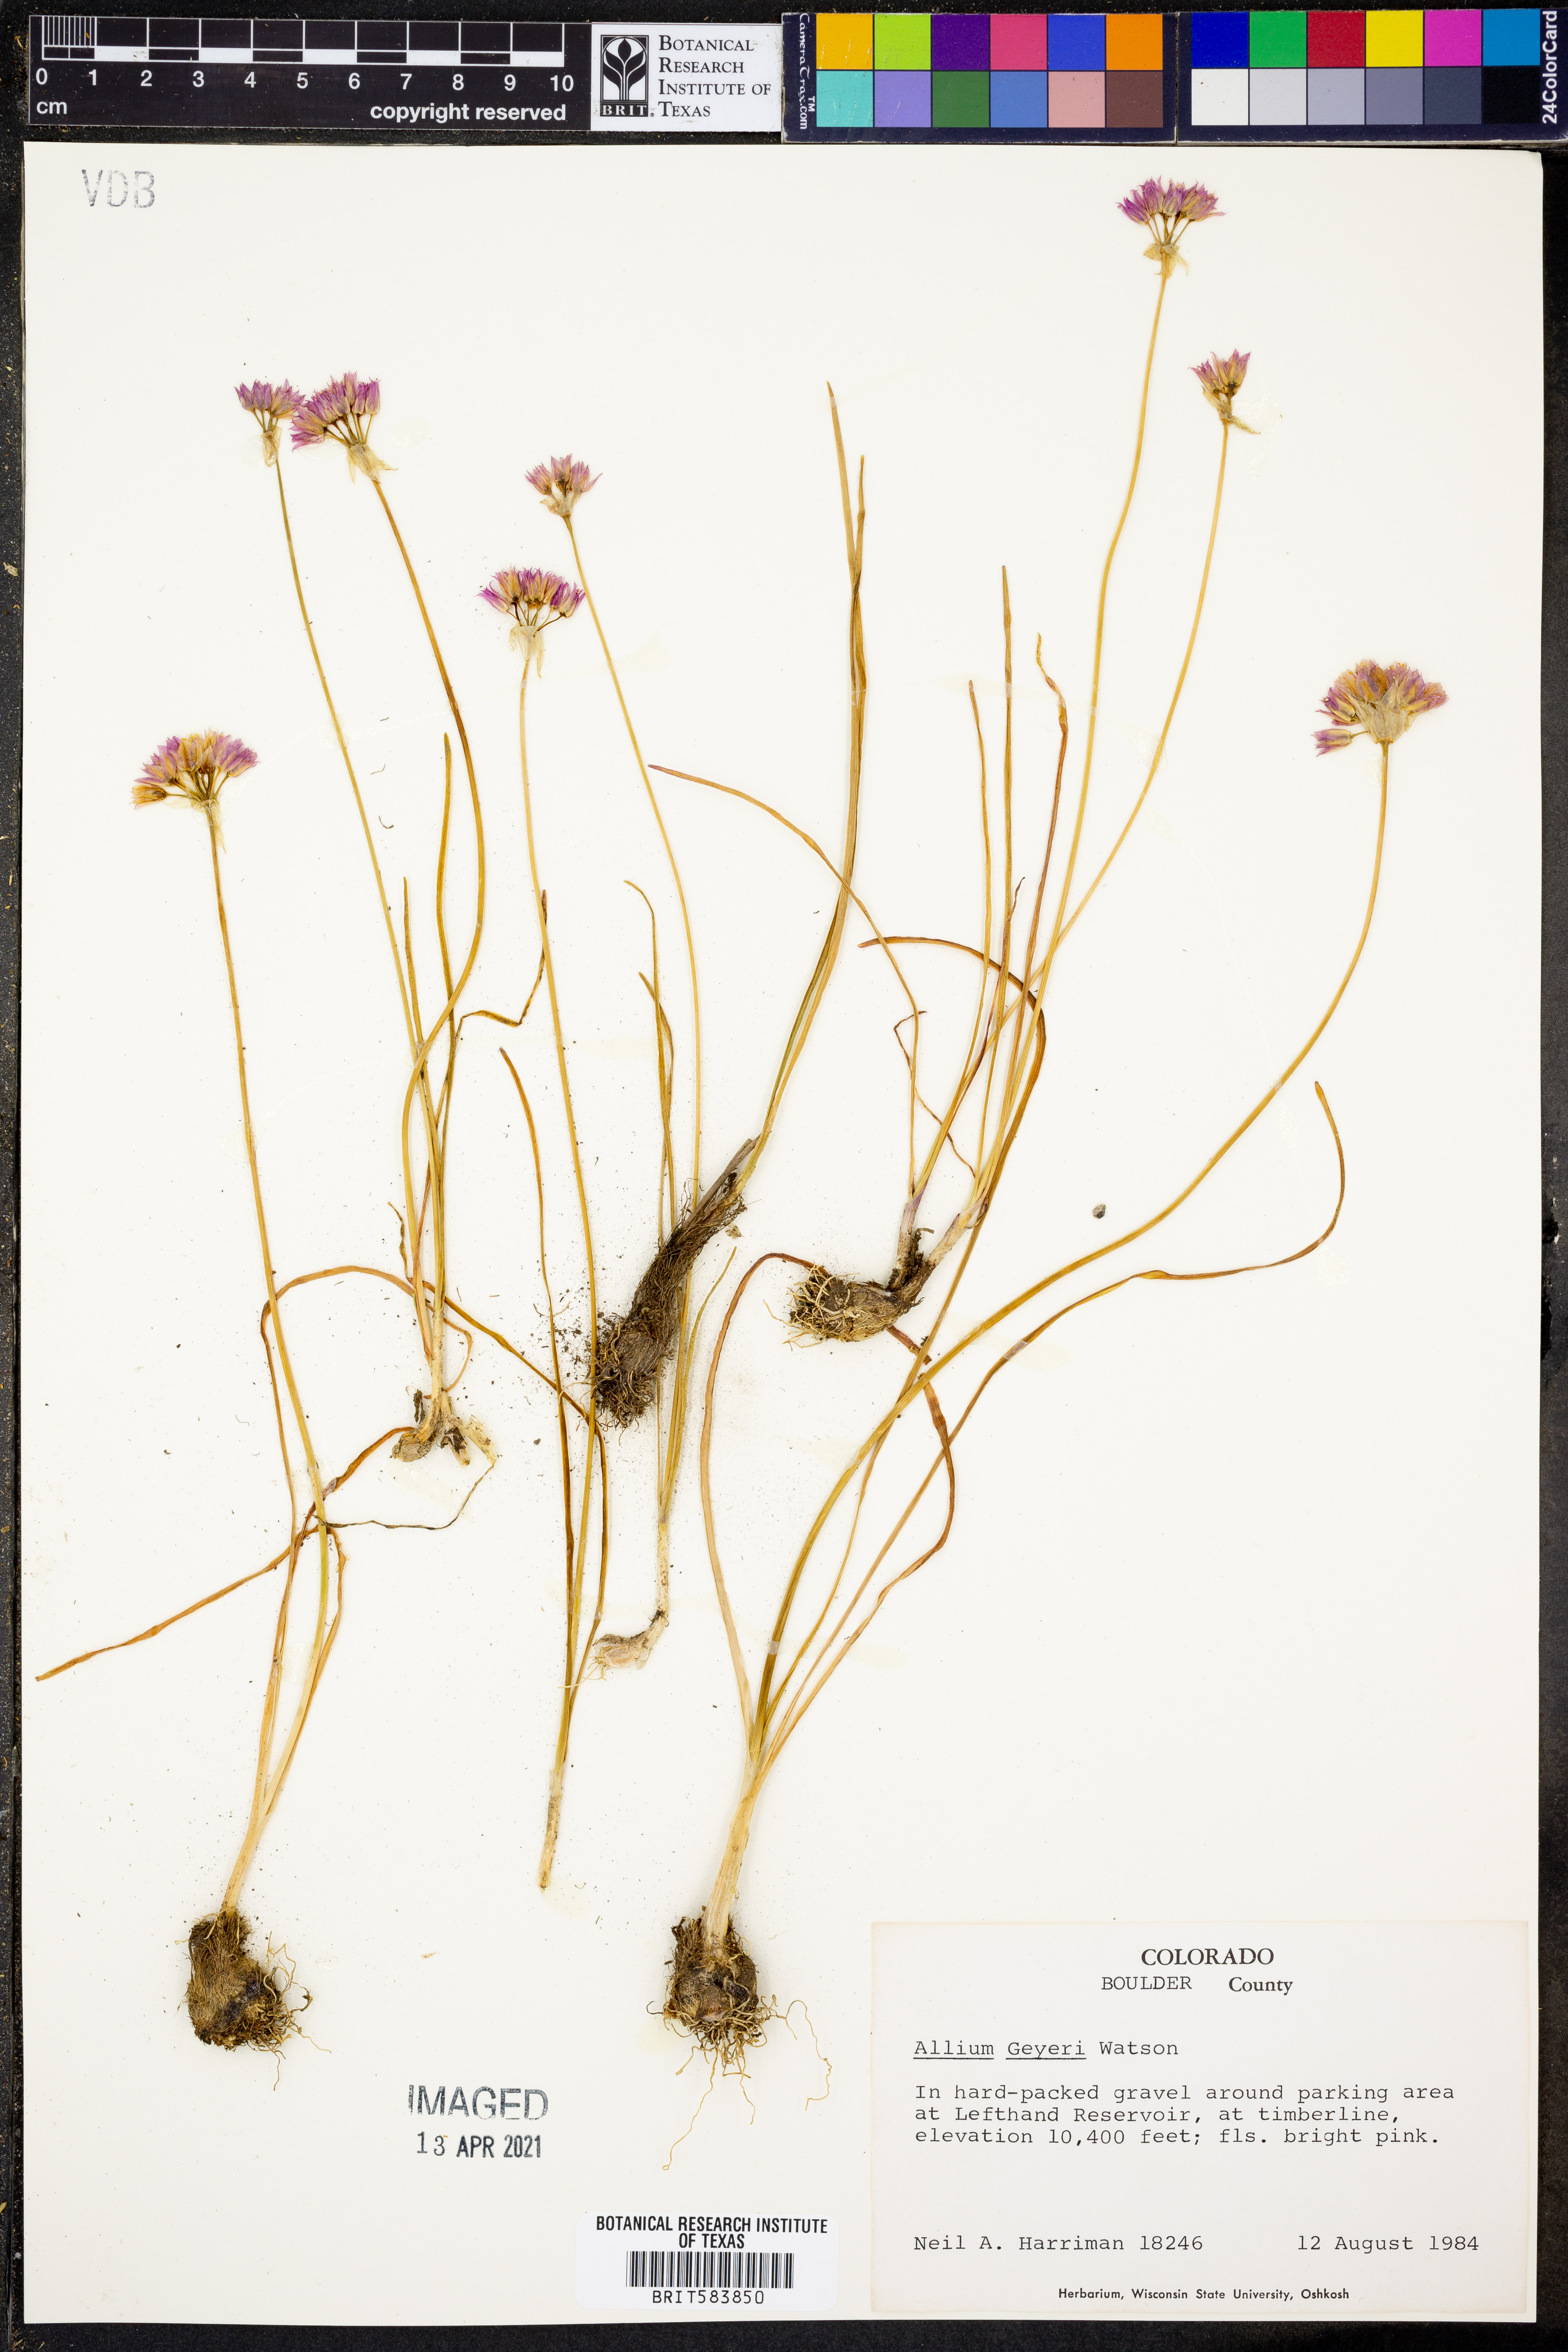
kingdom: Plantae
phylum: Tracheophyta
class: Liliopsida
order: Asparagales
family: Amaryllidaceae
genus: Allium
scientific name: Allium geyeri
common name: Geyer's onion
